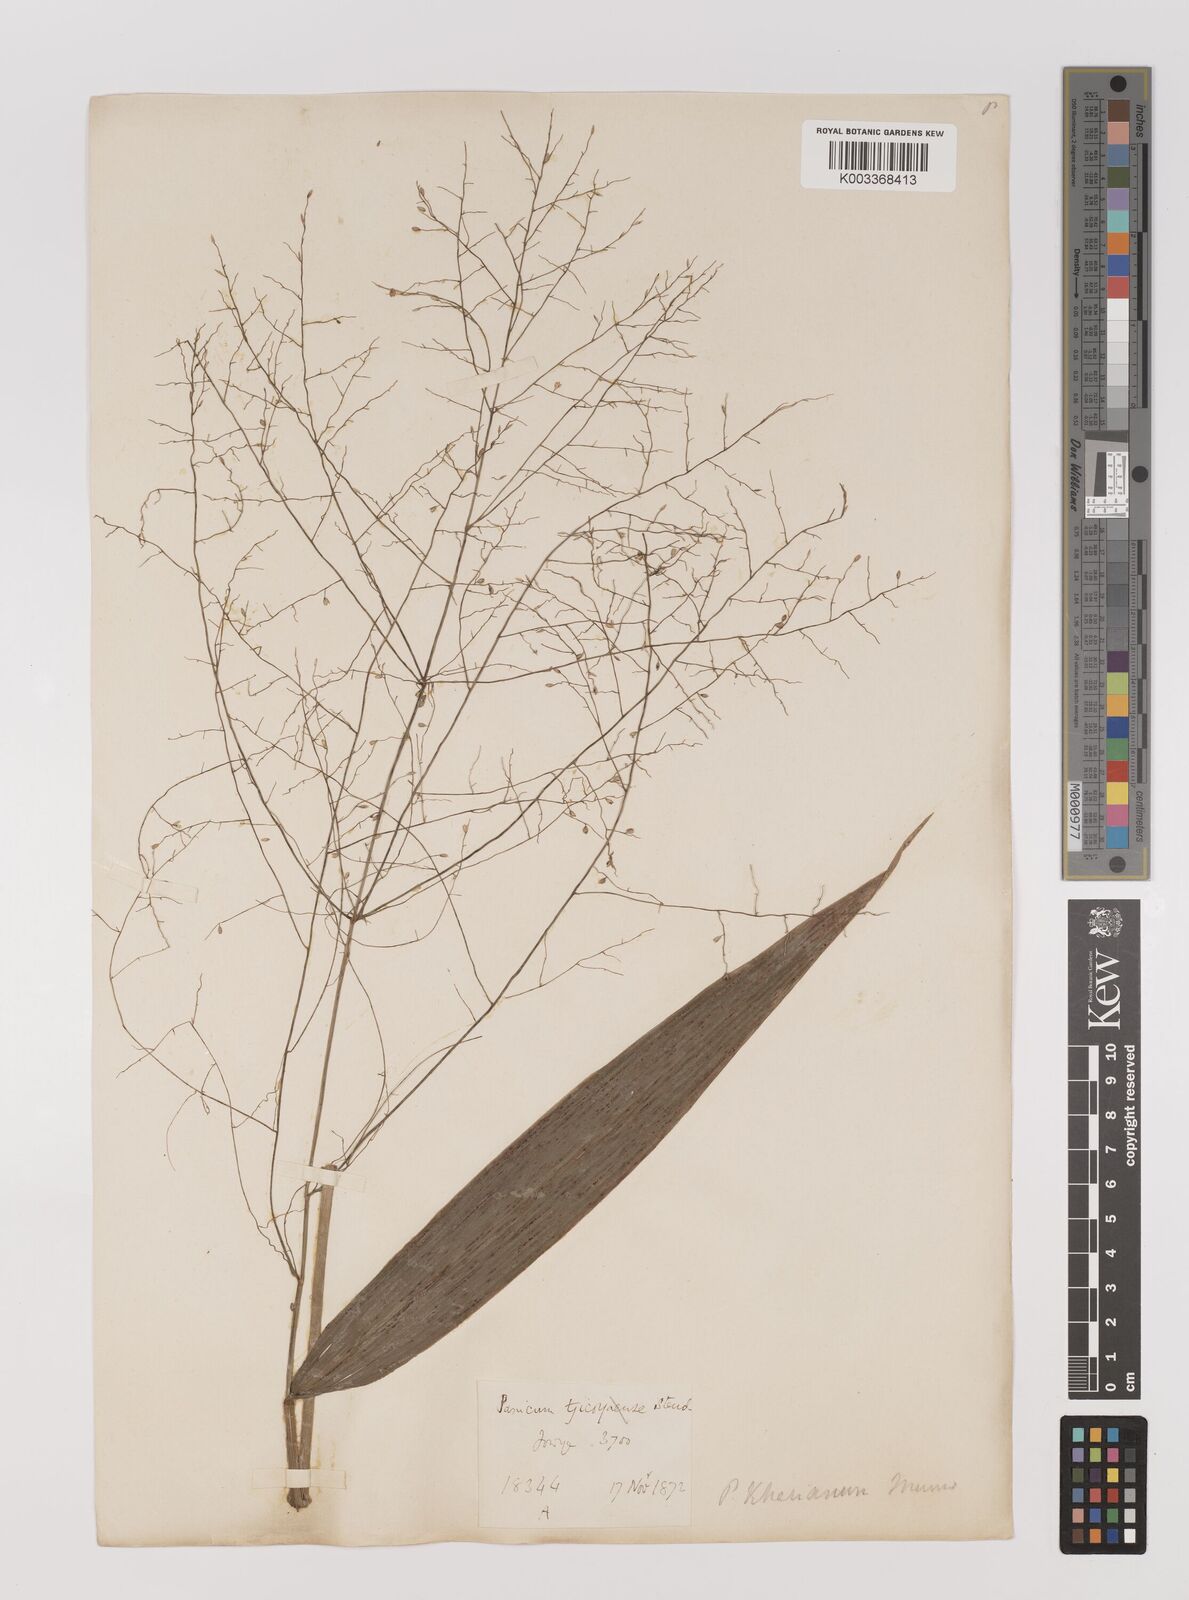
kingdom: Plantae
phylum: Tracheophyta
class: Liliopsida
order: Poales
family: Poaceae
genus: Panicum
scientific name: Panicum khasianum
